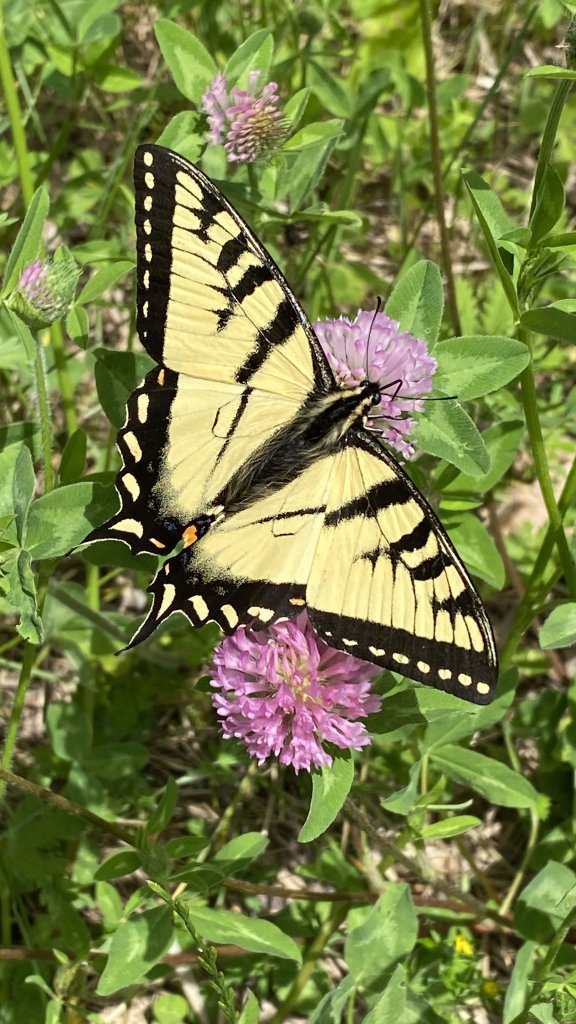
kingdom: Animalia
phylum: Arthropoda
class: Insecta
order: Lepidoptera
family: Papilionidae
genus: Pterourus
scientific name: Pterourus canadensis
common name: Canadian Tiger Swallowtail
